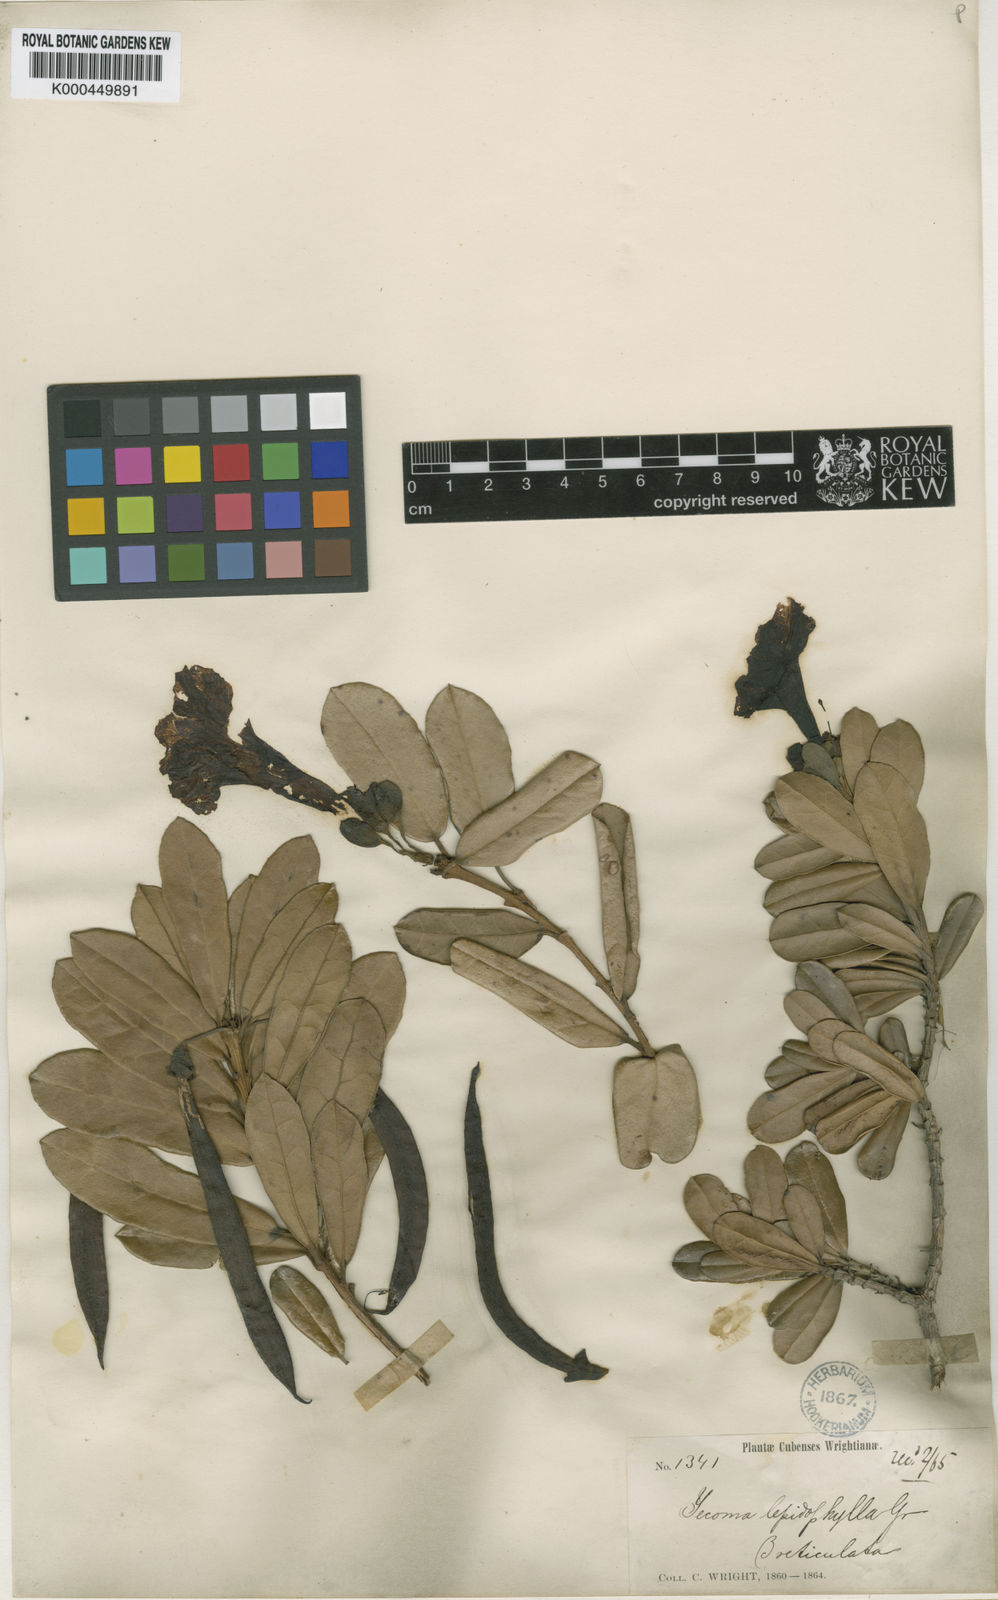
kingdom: Plantae
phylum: Tracheophyta
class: Magnoliopsida
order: Lamiales
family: Bignoniaceae
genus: Tabebuia
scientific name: Tabebuia
